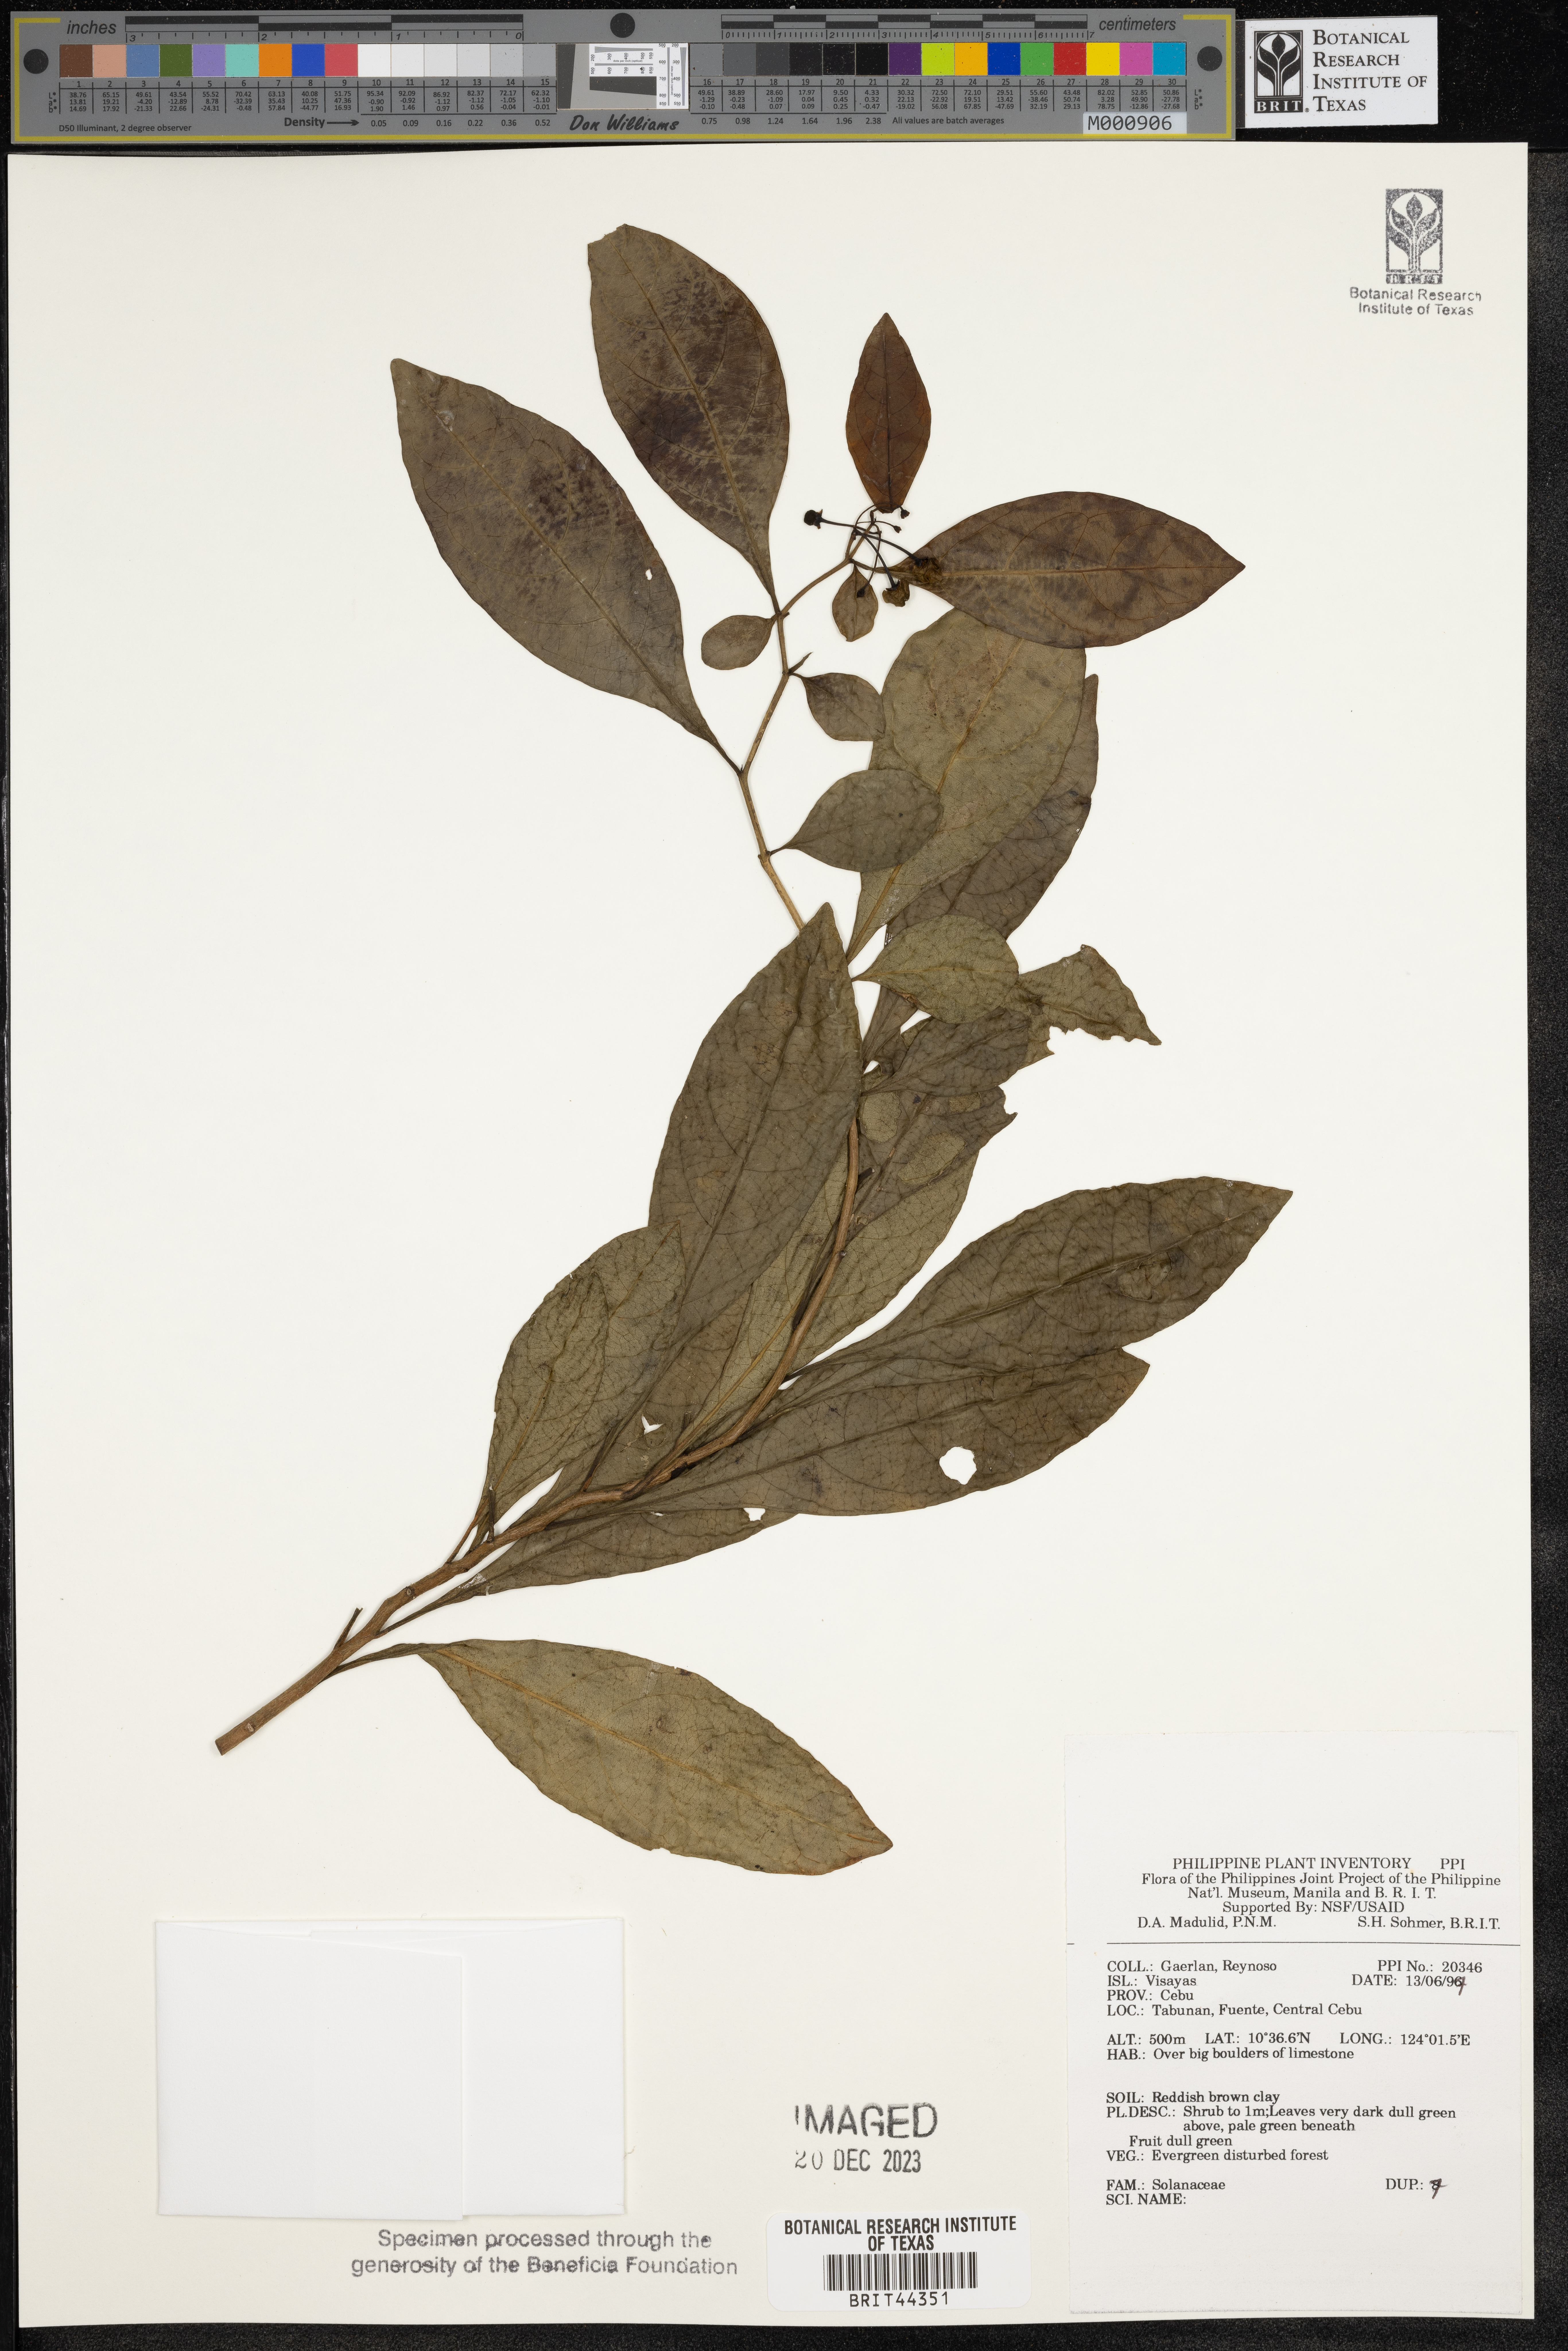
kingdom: Plantae
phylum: Tracheophyta
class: Magnoliopsida
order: Solanales
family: Solanaceae
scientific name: Solanaceae
